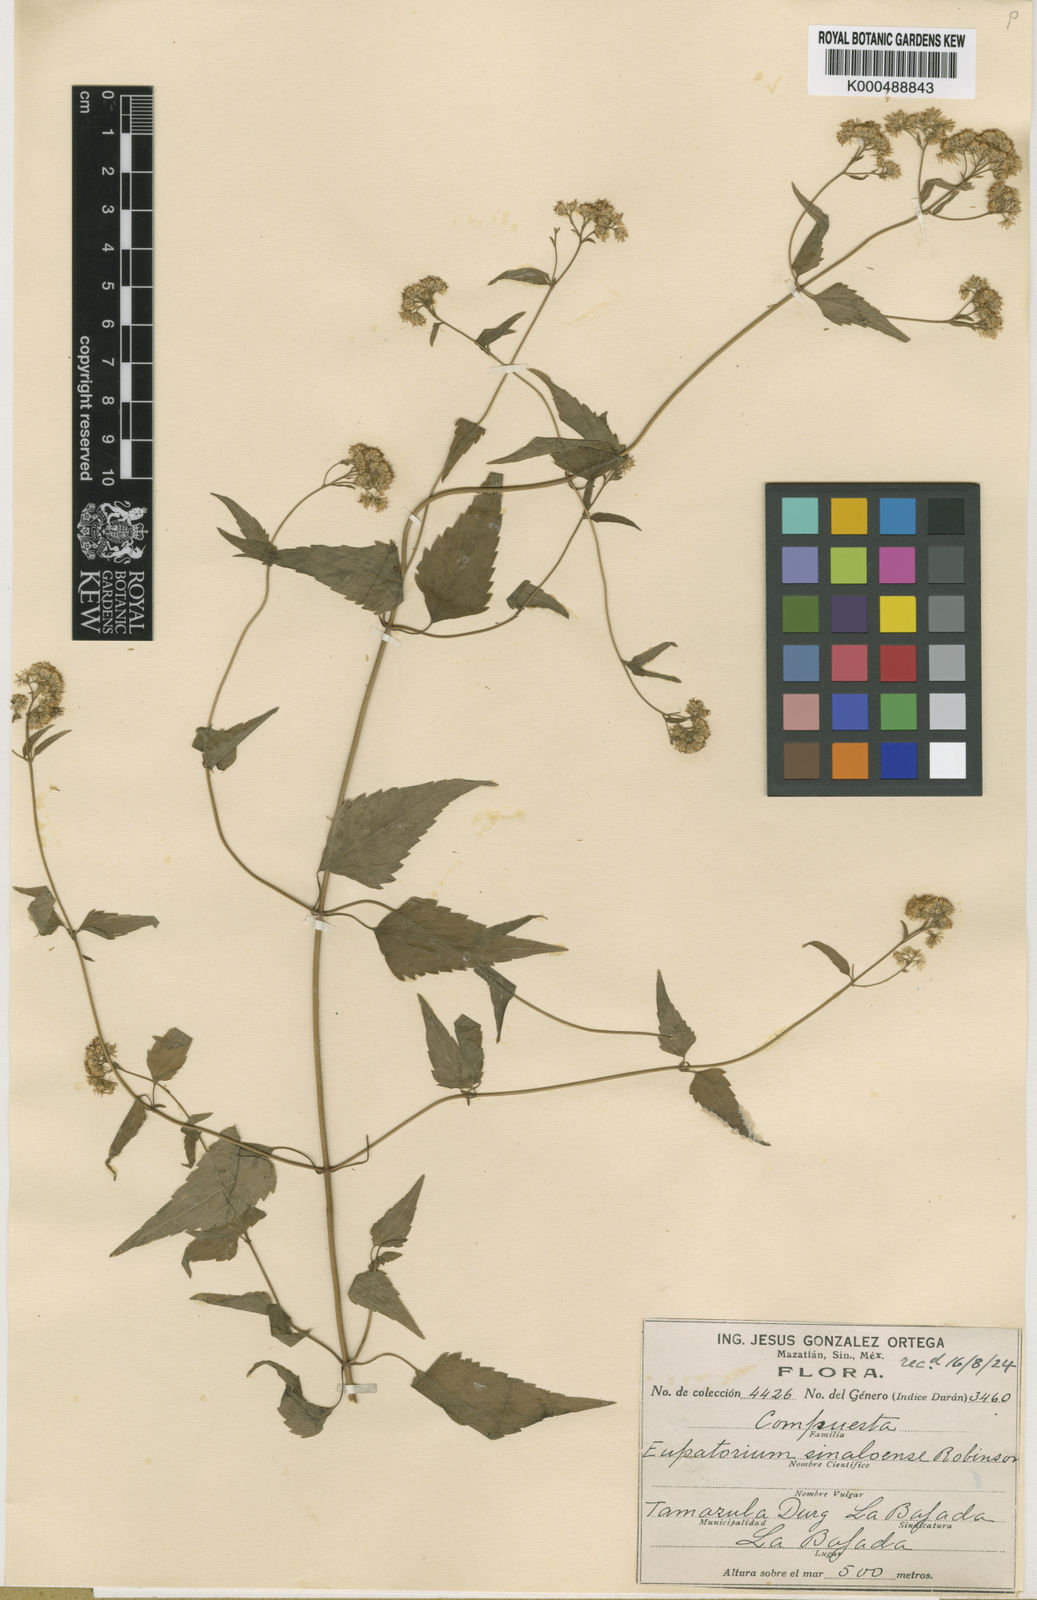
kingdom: Plantae
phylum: Tracheophyta
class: Magnoliopsida
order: Asterales
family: Asteraceae
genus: Fleischmannia
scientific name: Fleischmannia sinaloensis
